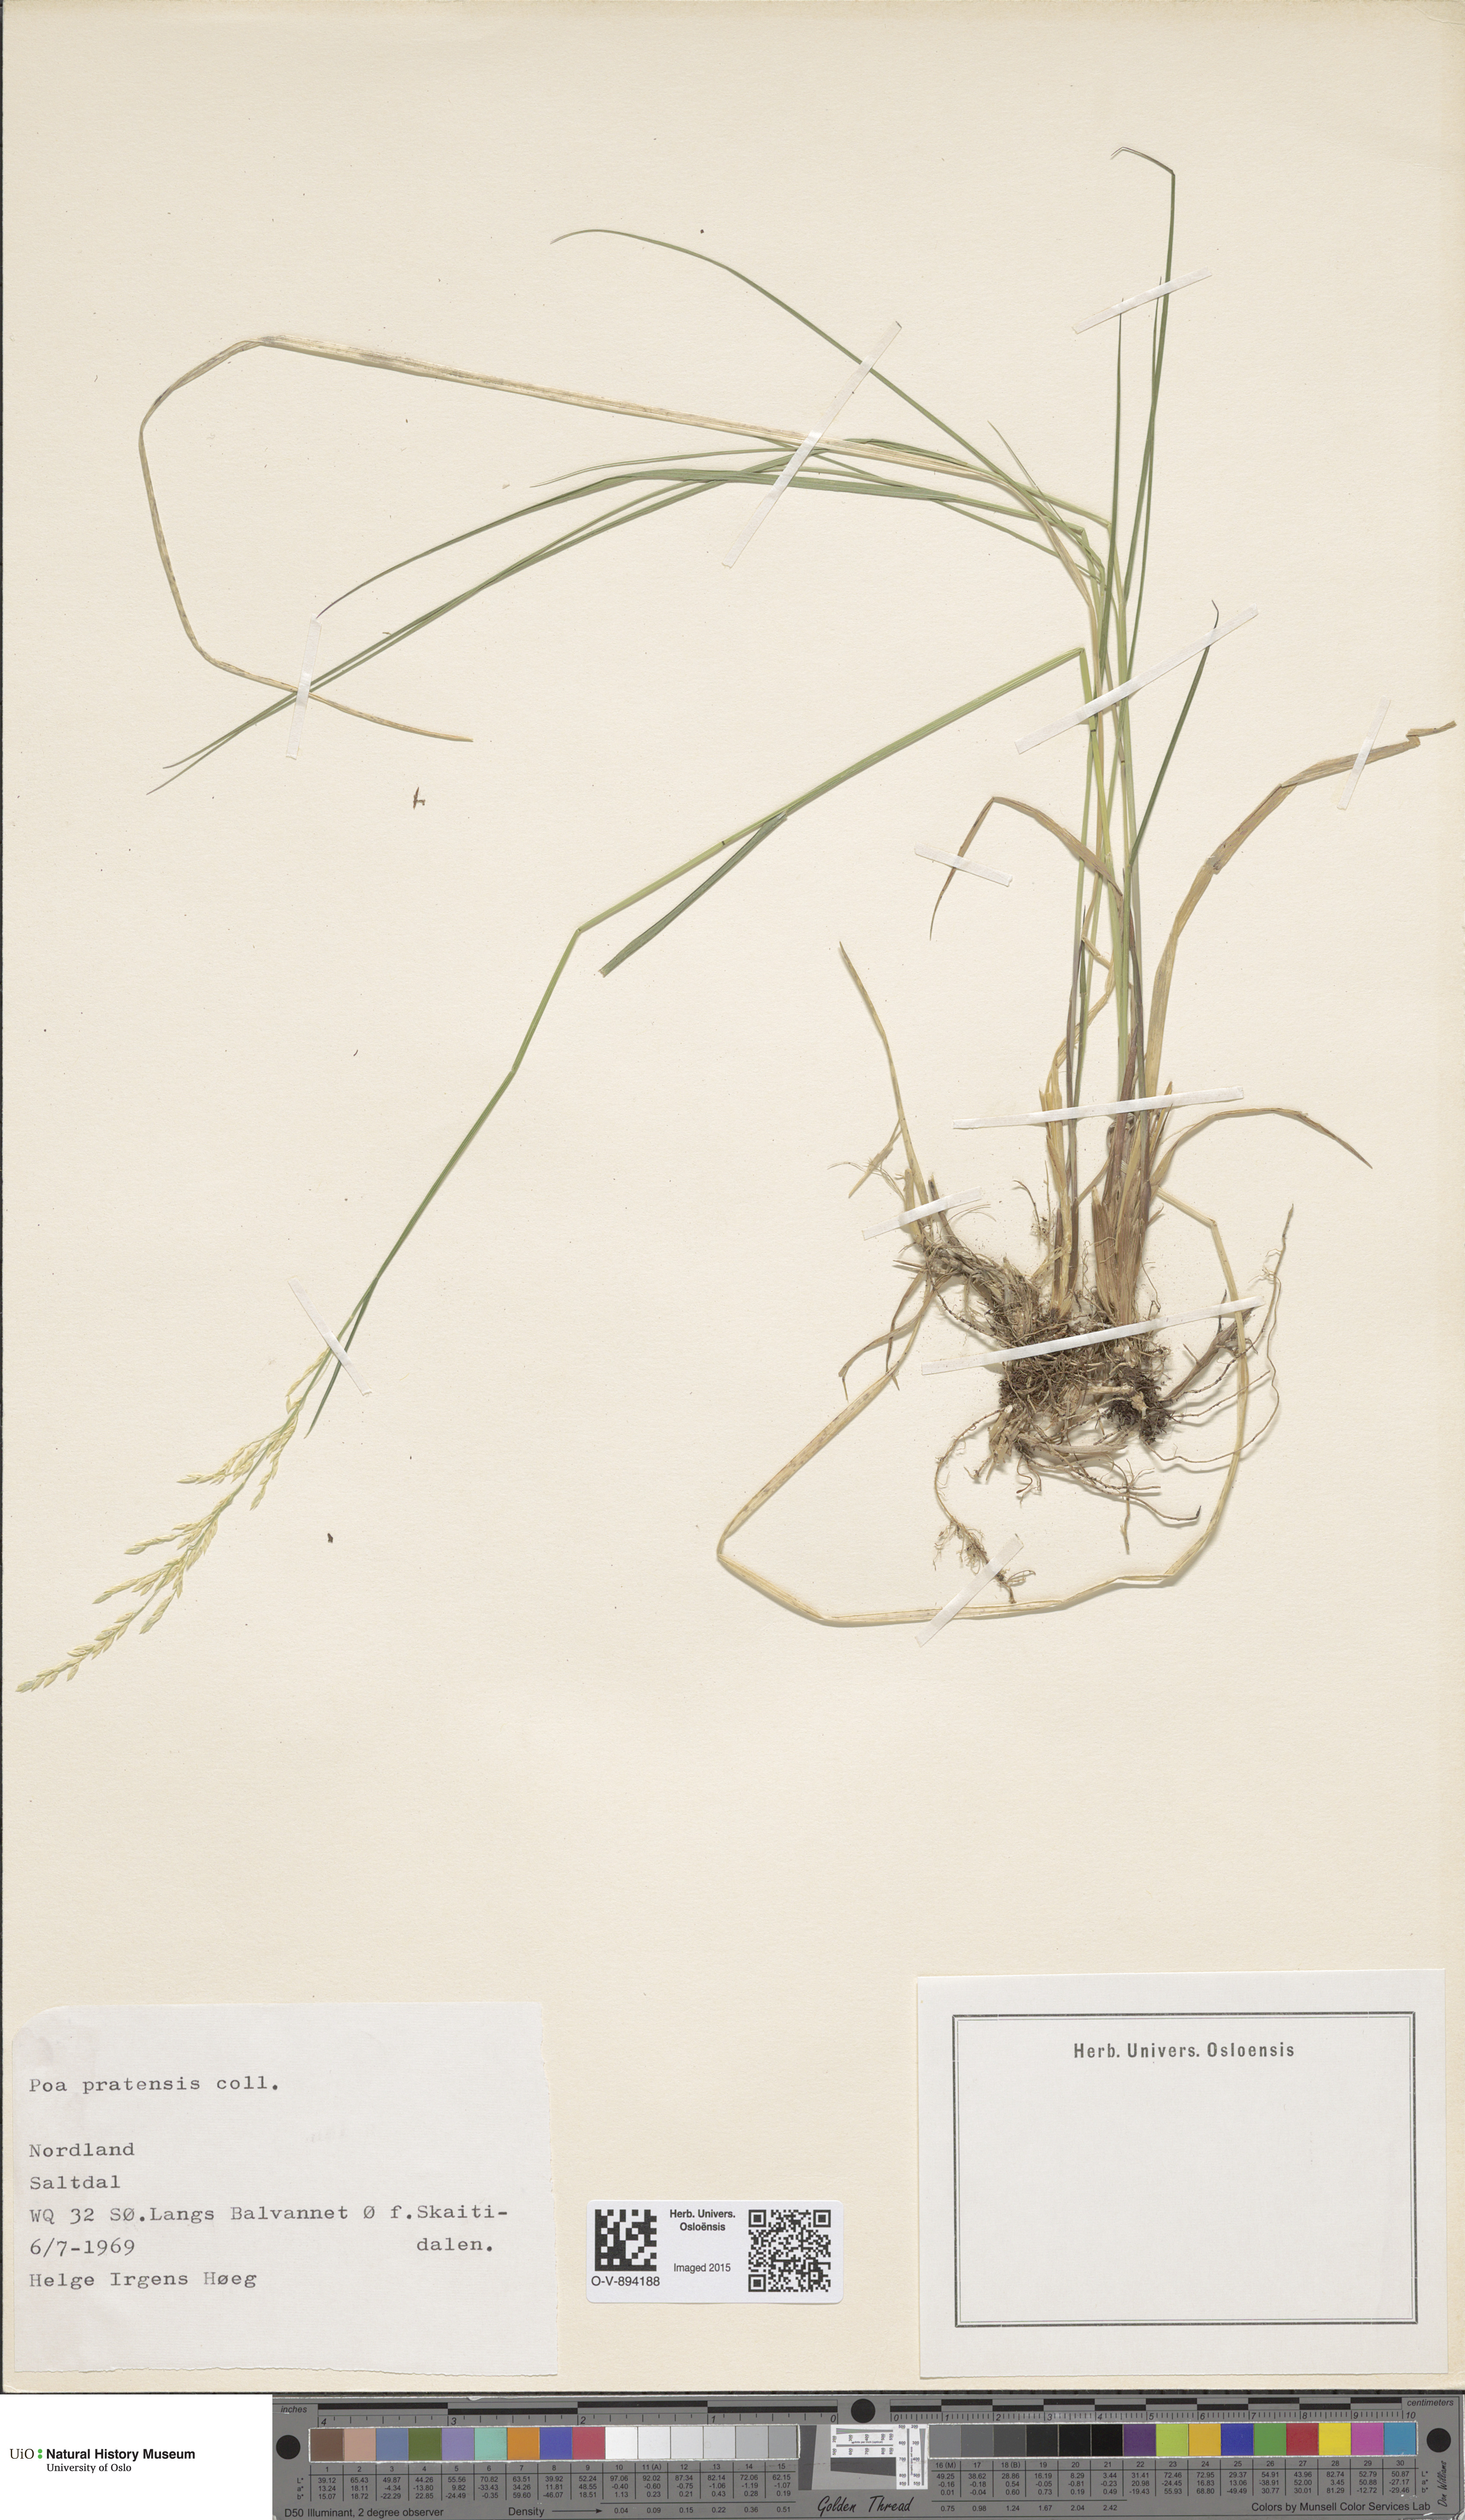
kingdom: Plantae
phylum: Tracheophyta
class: Liliopsida
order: Poales
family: Poaceae
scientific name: Poaceae
